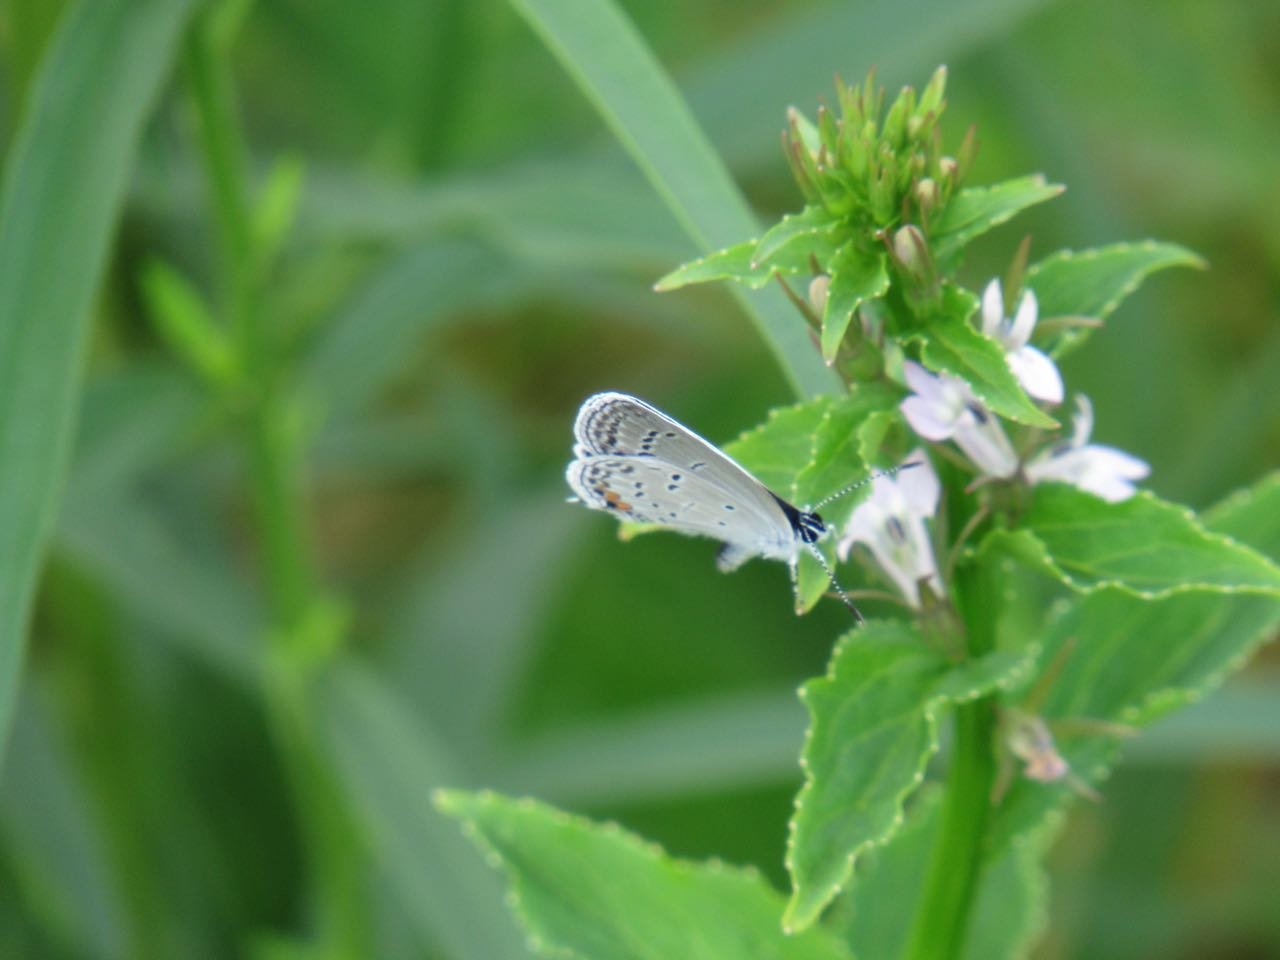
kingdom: Animalia
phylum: Arthropoda
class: Insecta
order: Lepidoptera
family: Lycaenidae
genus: Elkalyce
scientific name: Elkalyce comyntas
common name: Eastern Tailed-Blue
